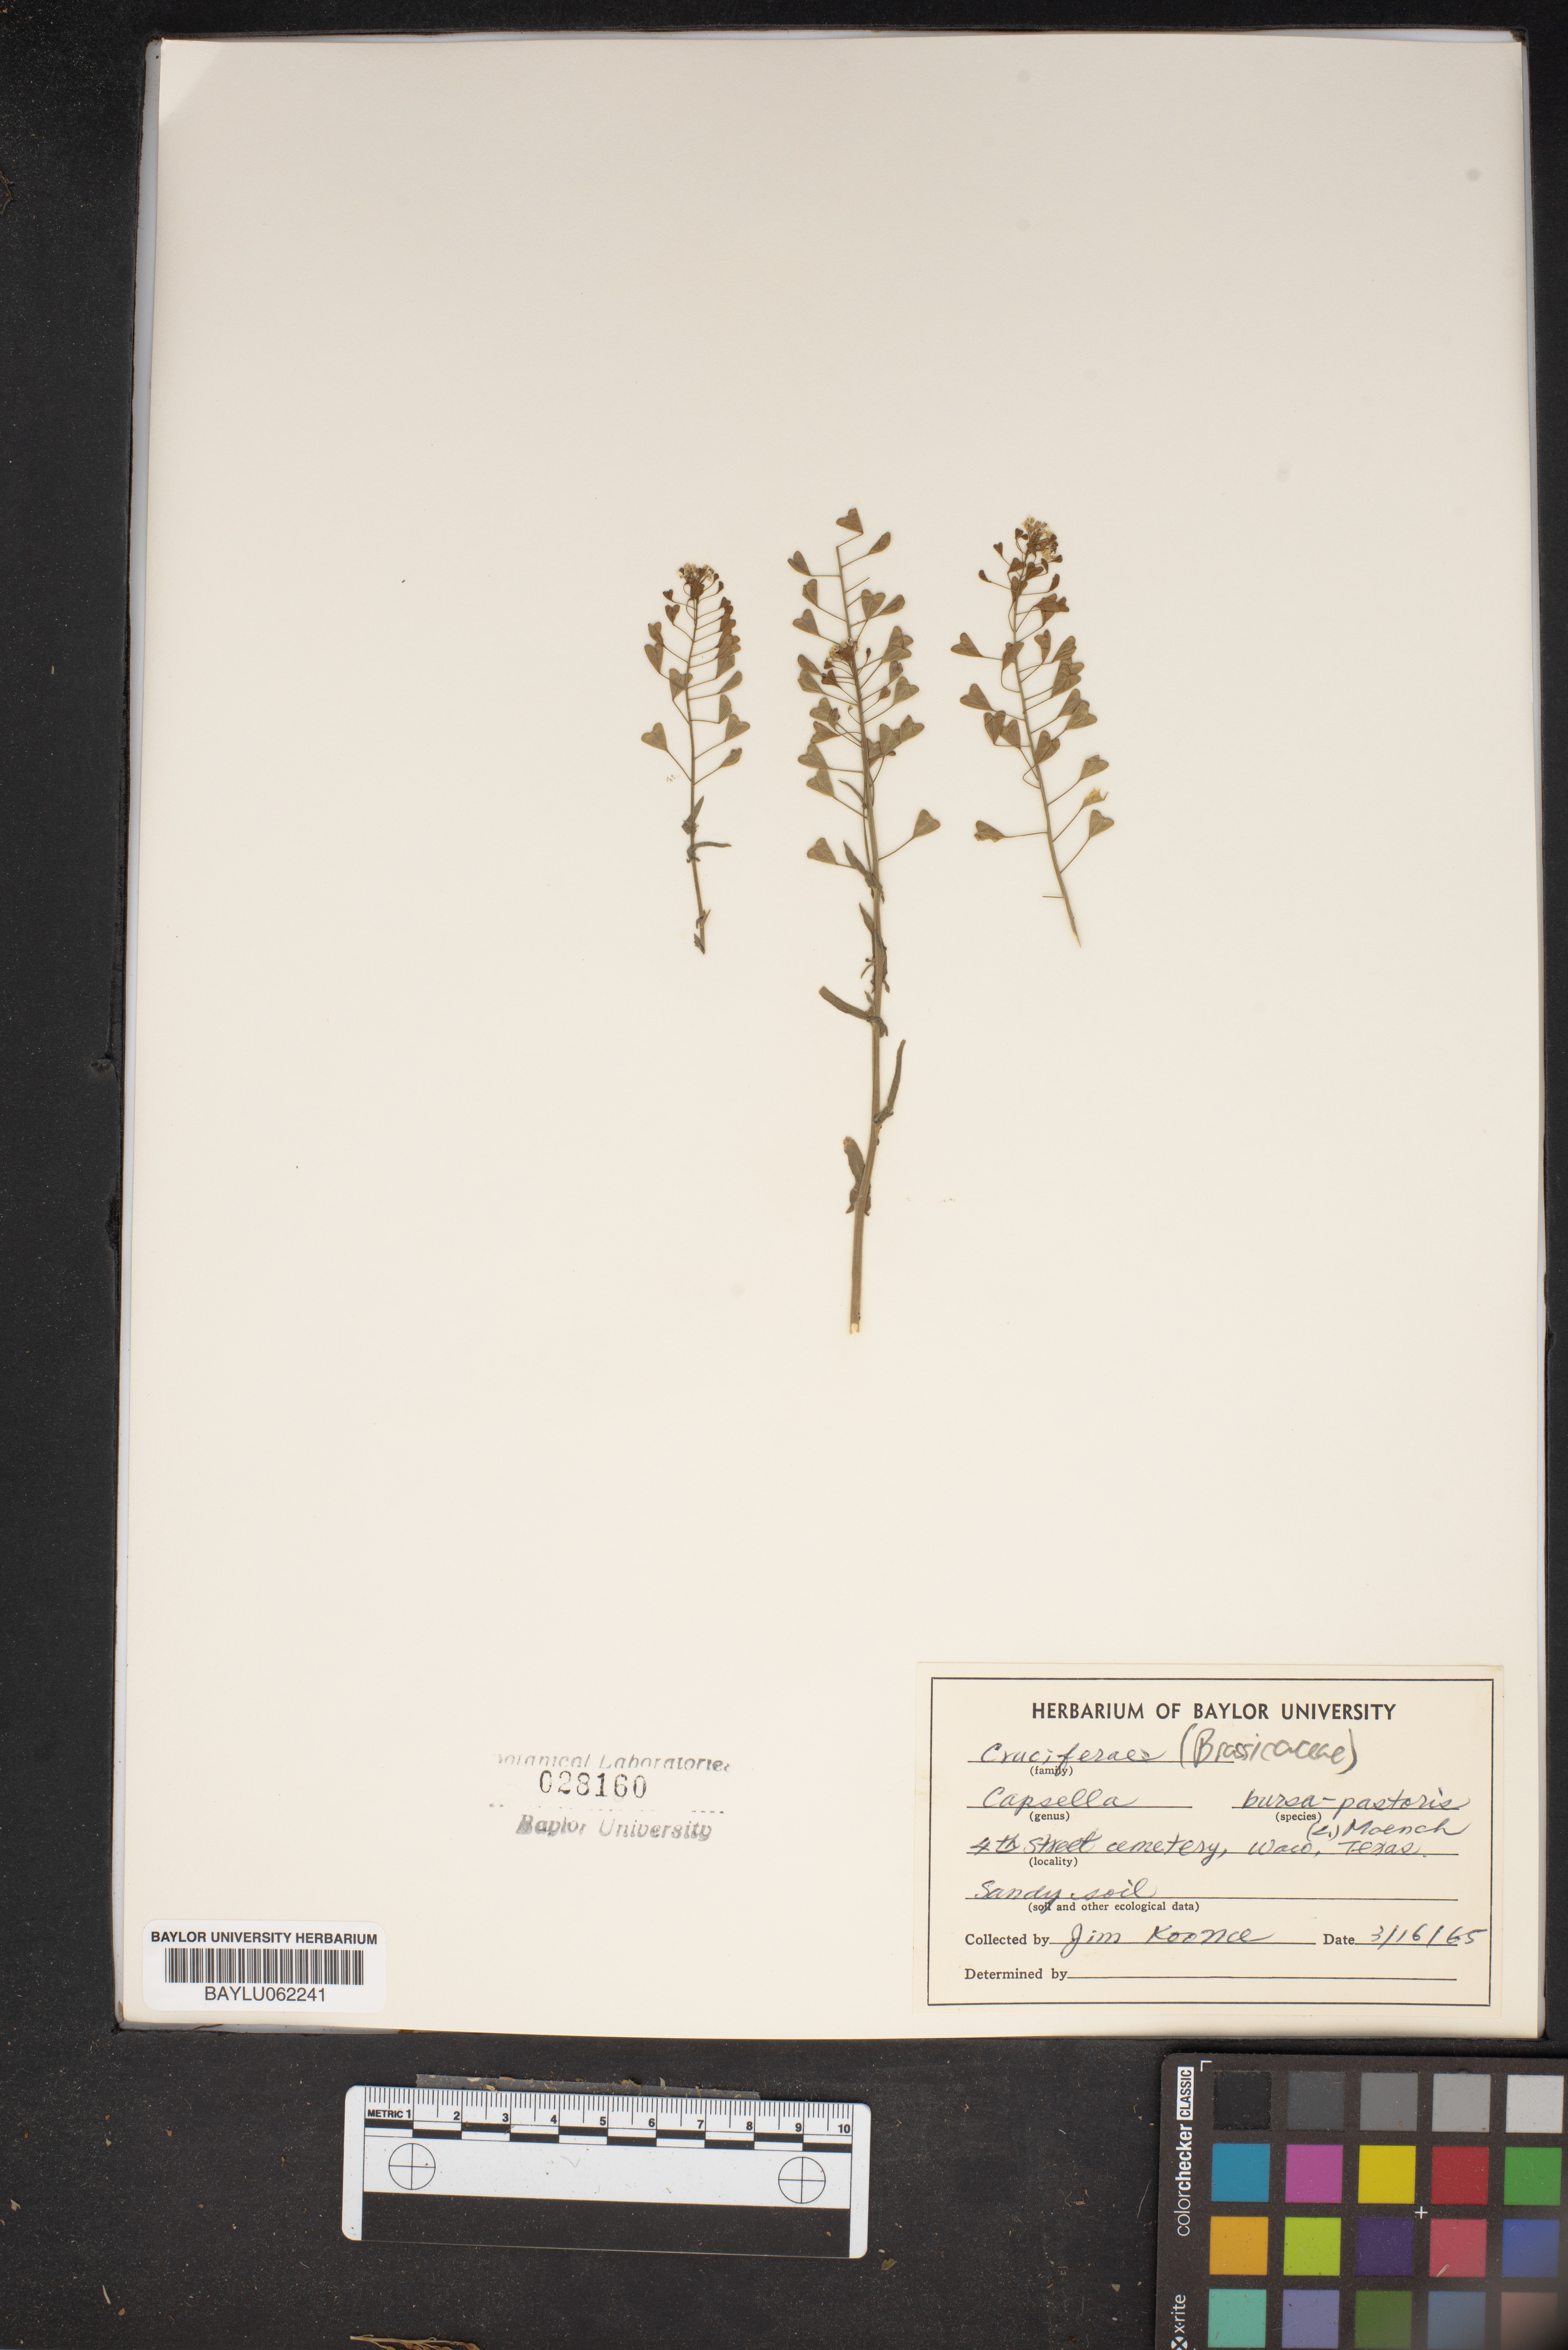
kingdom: Plantae
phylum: Tracheophyta
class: Magnoliopsida
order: Brassicales
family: Brassicaceae
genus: Capsella
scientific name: Capsella bursa-pastoris
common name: Shepherd's purse
